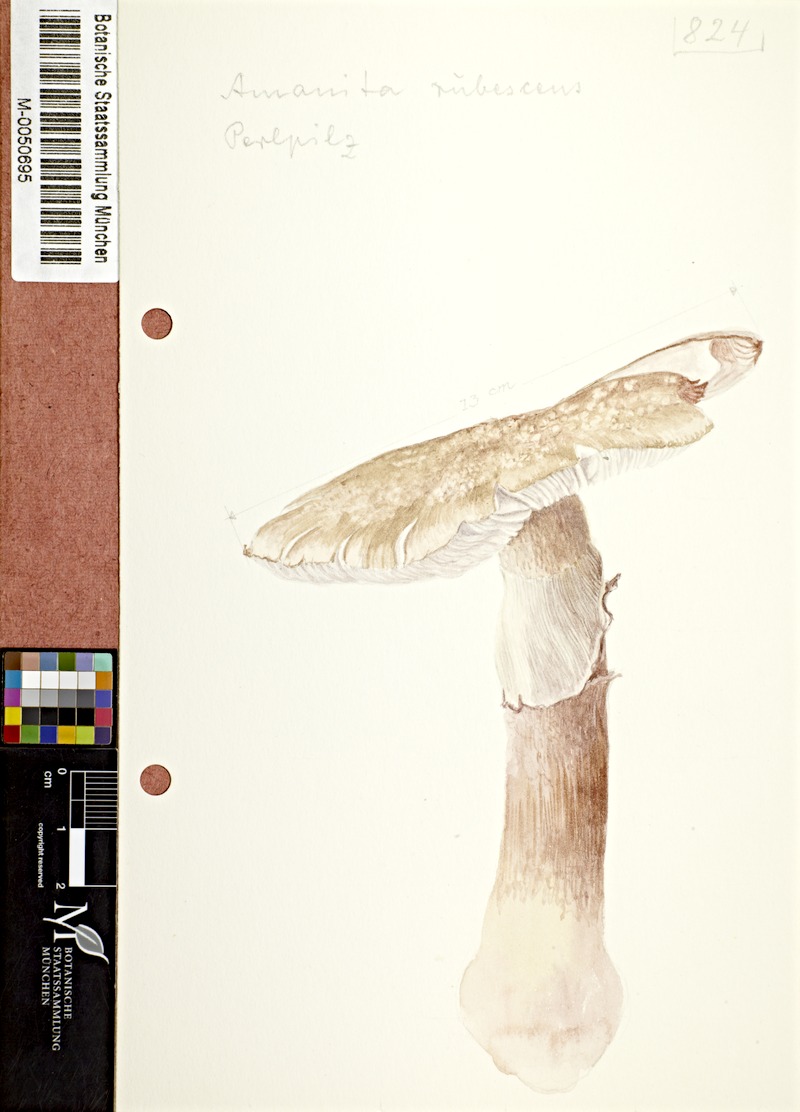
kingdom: Fungi
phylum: Basidiomycota
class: Agaricomycetes
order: Agaricales
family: Amanitaceae
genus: Amanita
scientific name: Amanita rubescens
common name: Blusher
